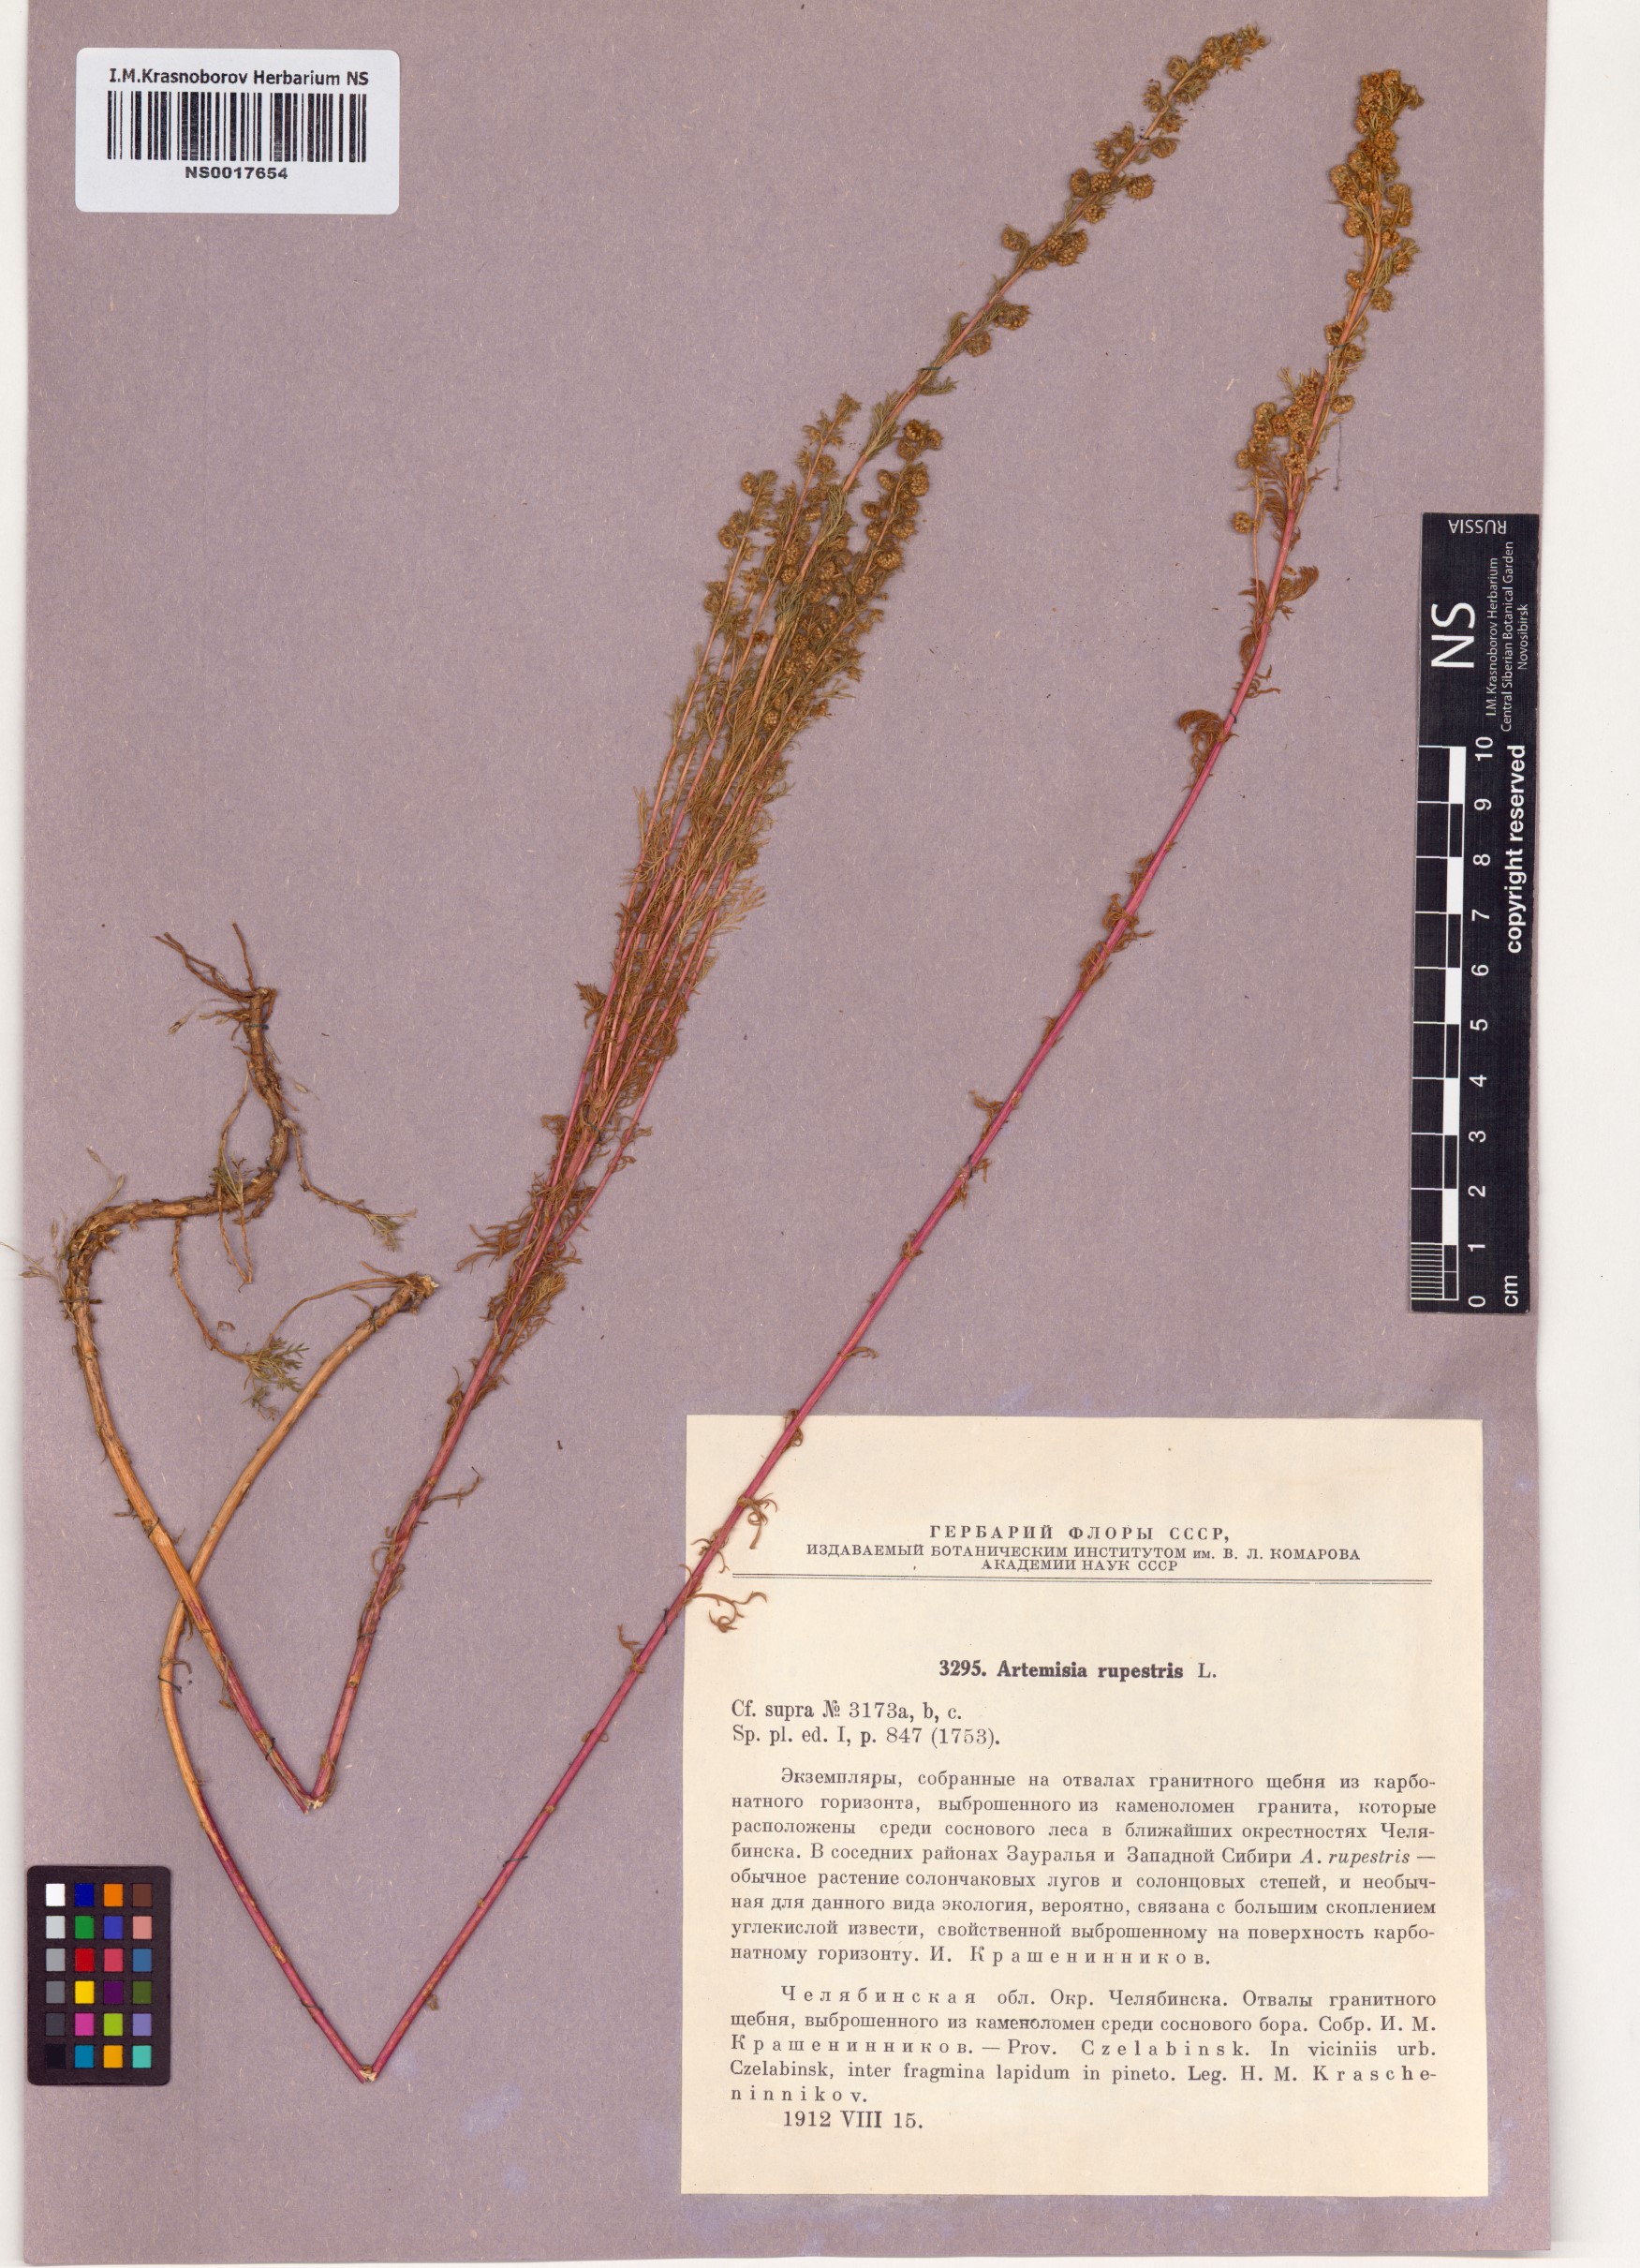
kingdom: Plantae
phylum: Tracheophyta
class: Magnoliopsida
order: Asterales
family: Asteraceae
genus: Artemisia
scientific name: Artemisia rupestris
